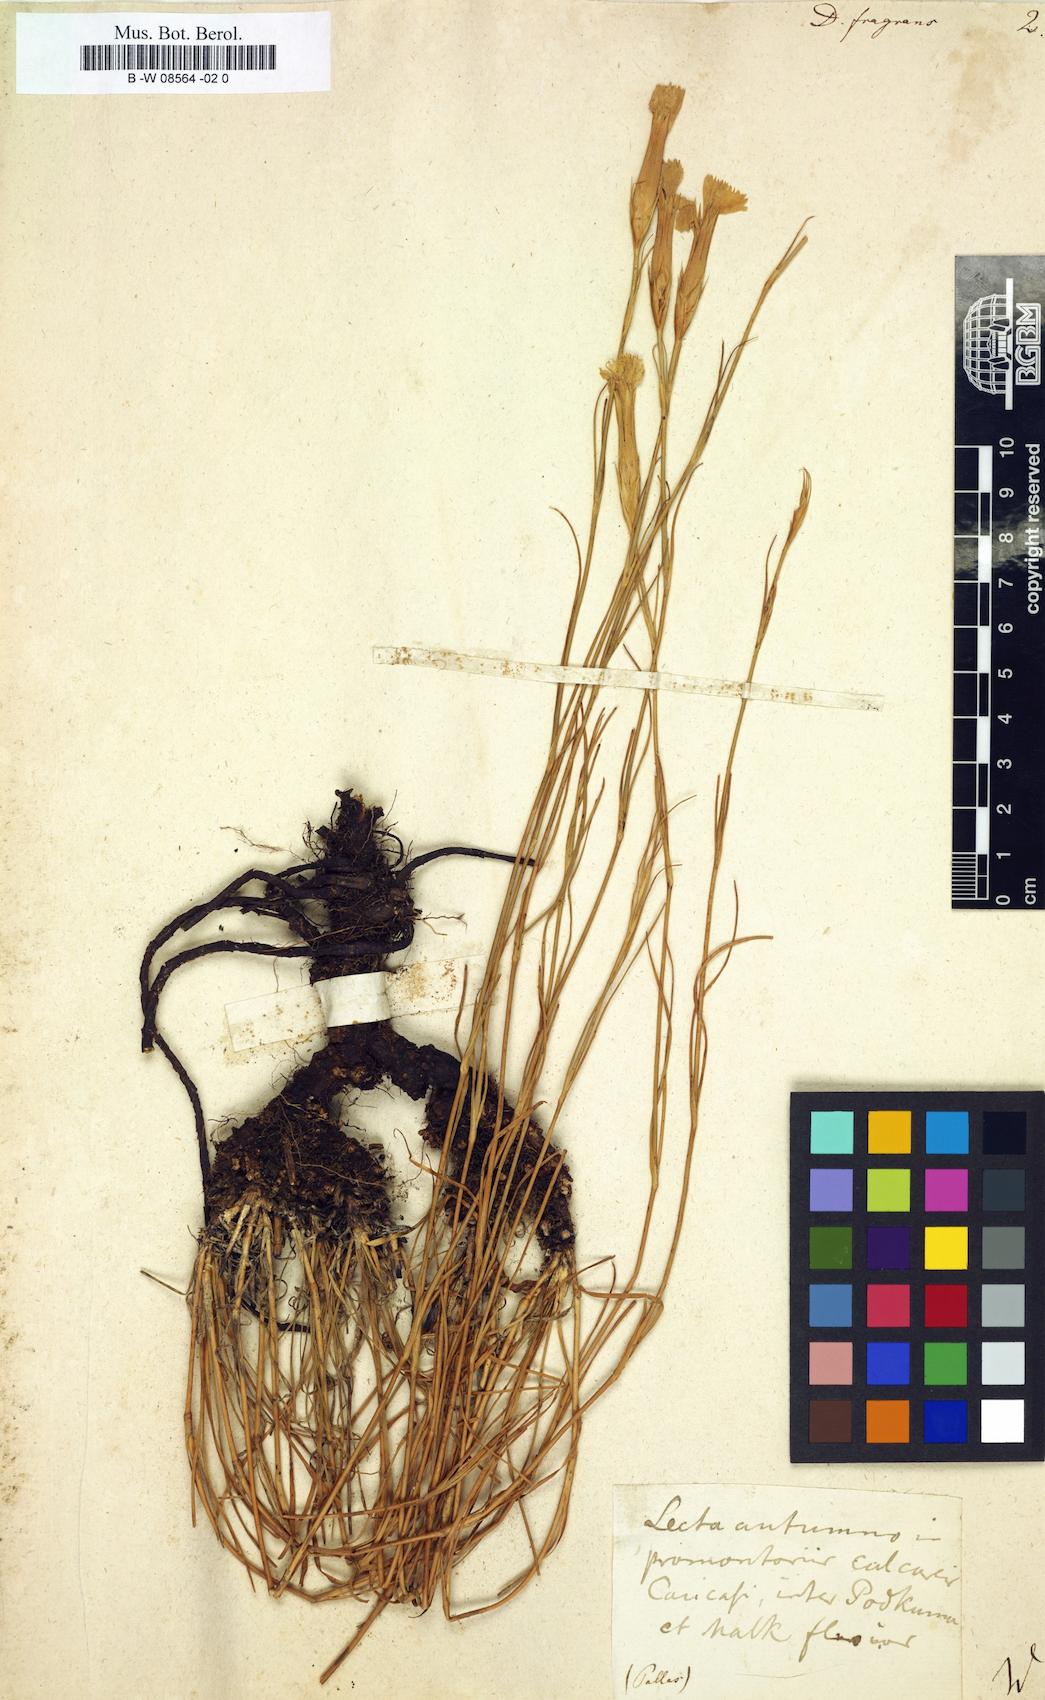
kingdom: Plantae
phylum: Tracheophyta
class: Magnoliopsida
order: Caryophyllales
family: Caryophyllaceae
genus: Dianthus
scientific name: Dianthus fragrans
